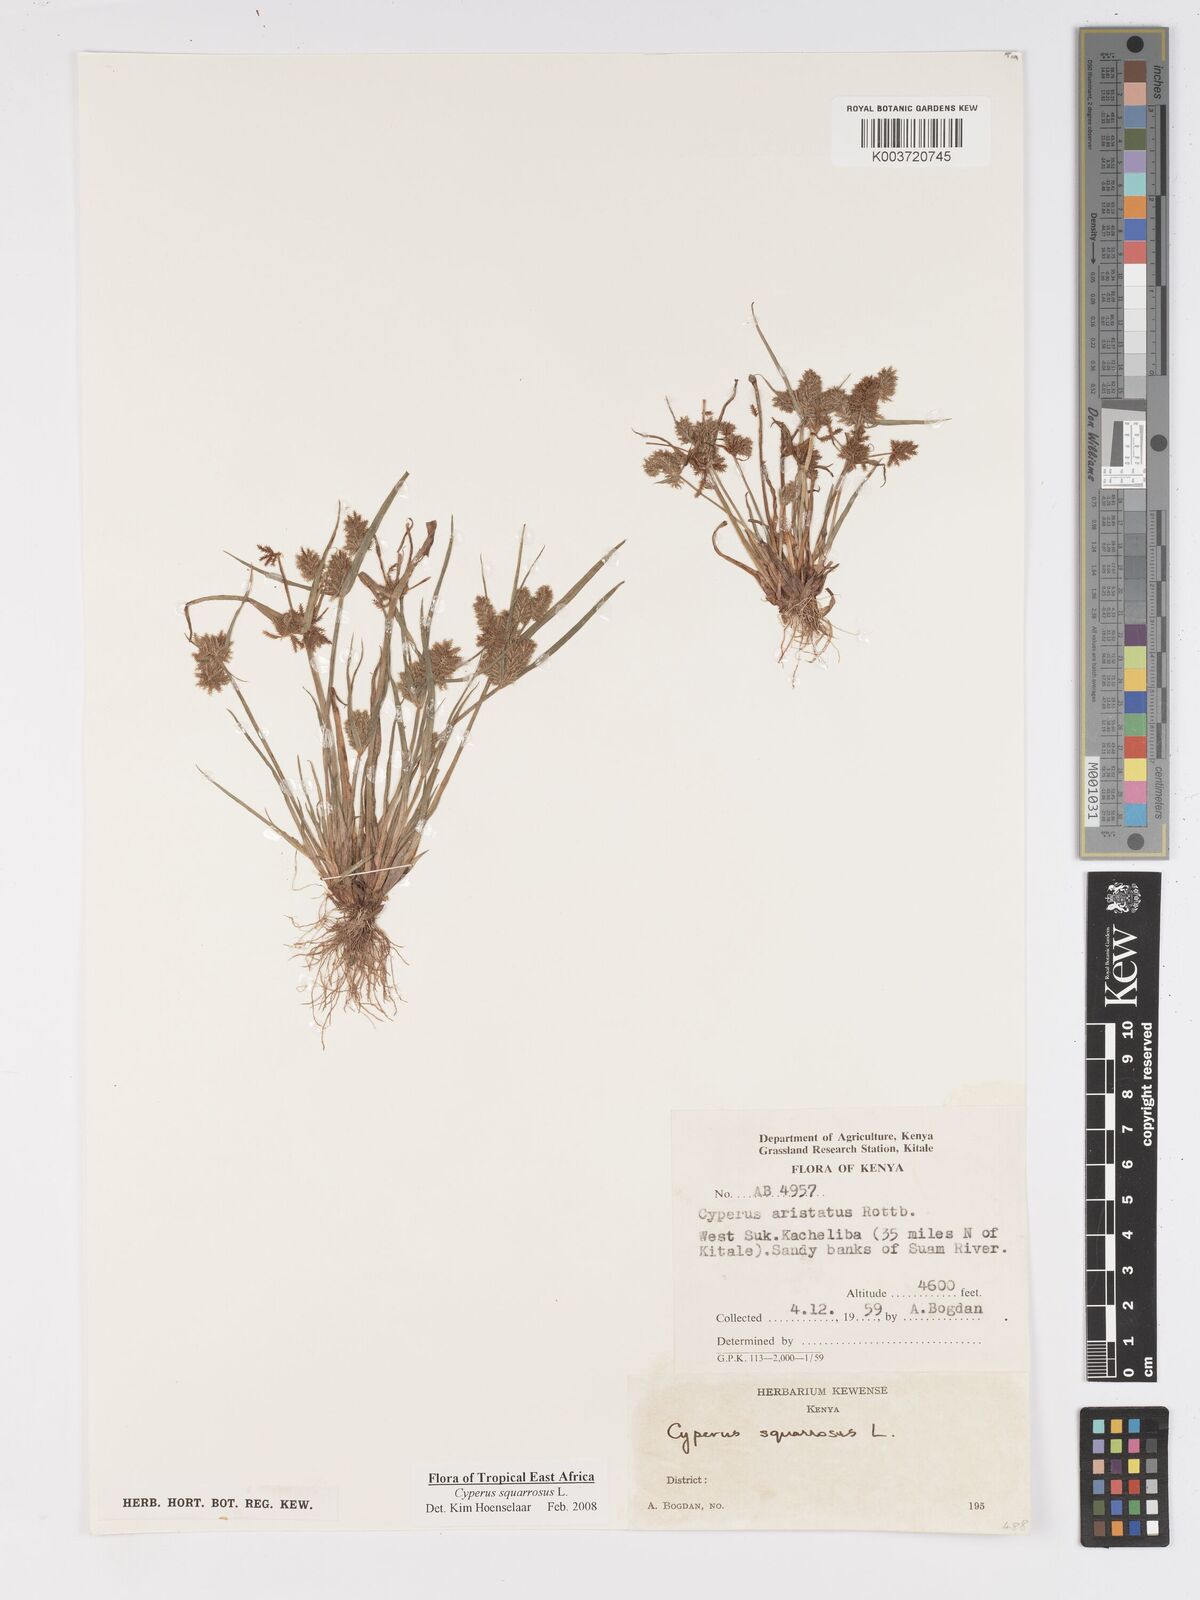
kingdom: Plantae
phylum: Tracheophyta
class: Liliopsida
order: Poales
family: Cyperaceae
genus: Cyperus
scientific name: Cyperus squarrosus
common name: Awned cyperus
